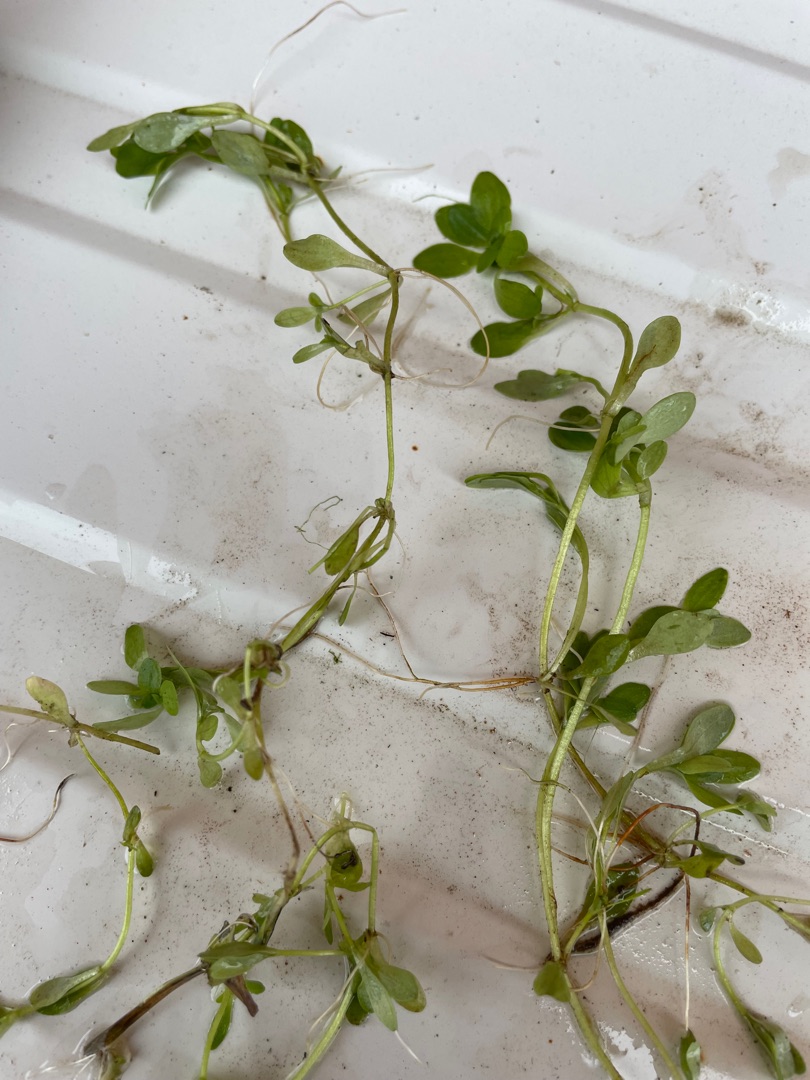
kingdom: Plantae
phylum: Tracheophyta
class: Magnoliopsida
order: Lamiales
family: Plantaginaceae
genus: Callitriche
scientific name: Callitriche
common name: Vandstjerneslægten
